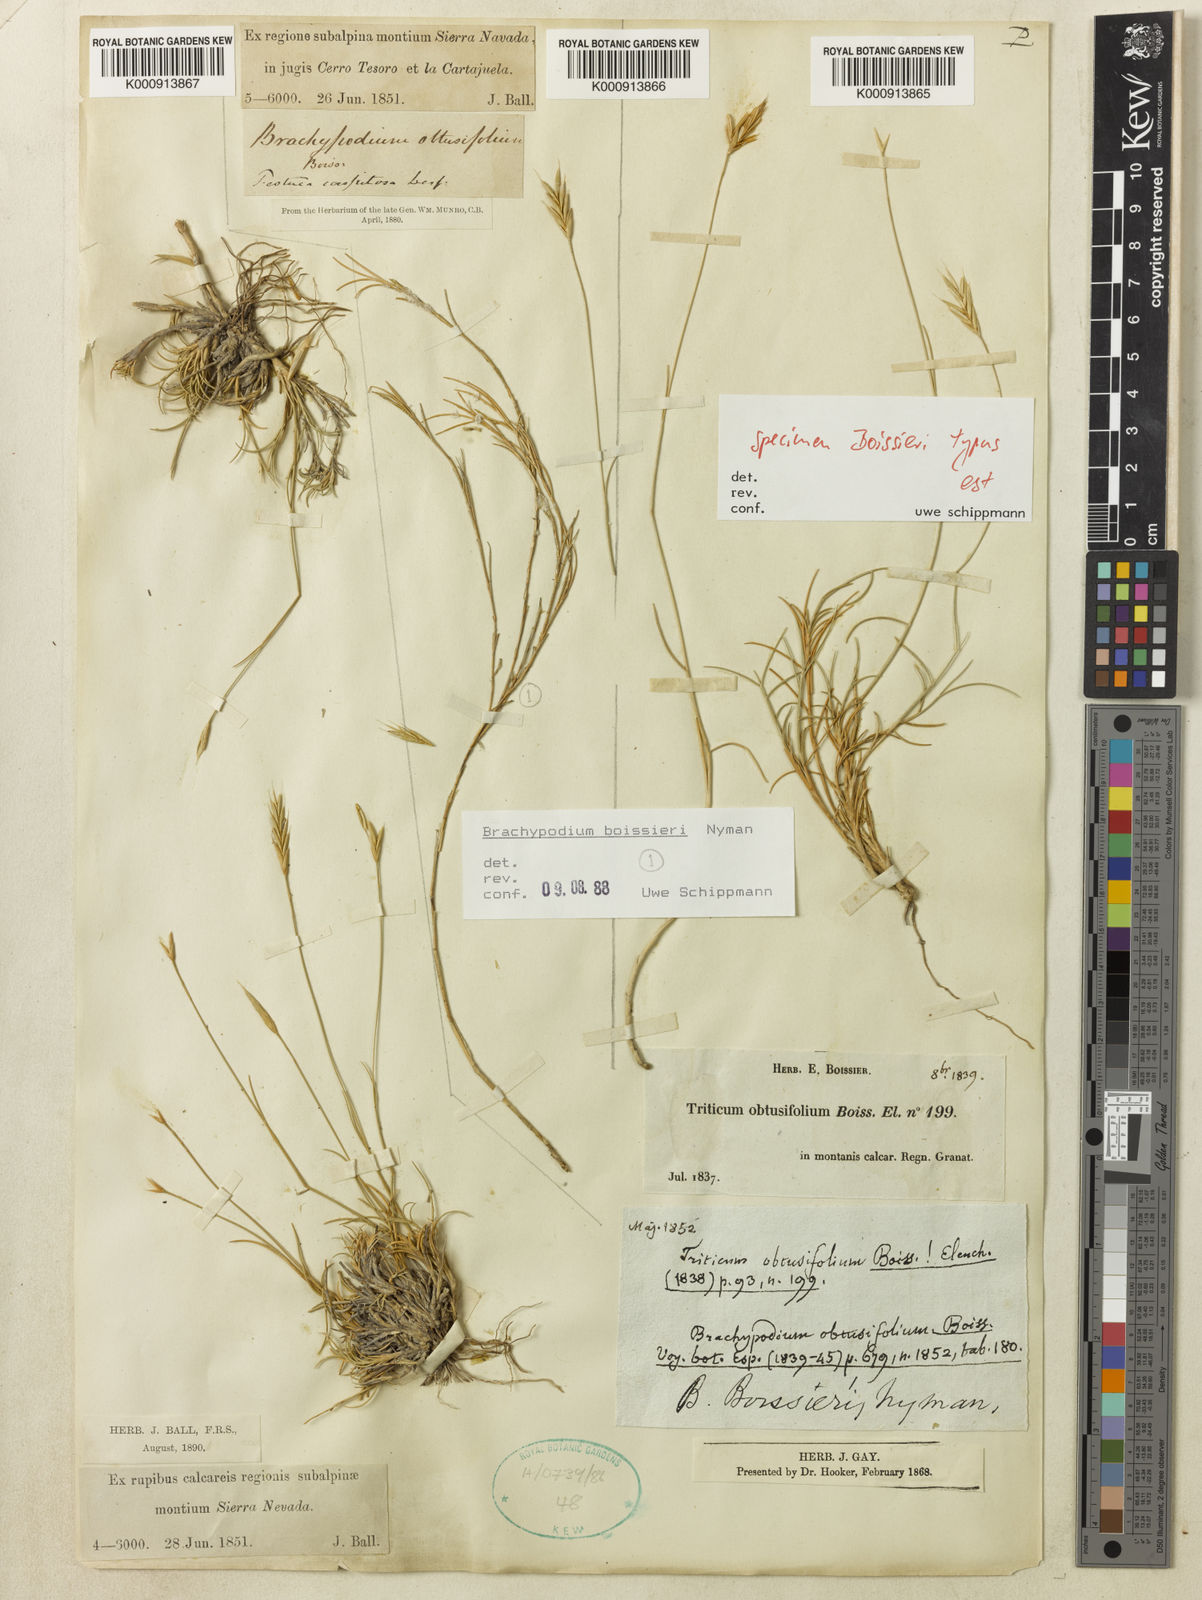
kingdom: Plantae
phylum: Tracheophyta
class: Liliopsida
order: Poales
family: Poaceae
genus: Brachypodium
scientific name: Brachypodium retusum
